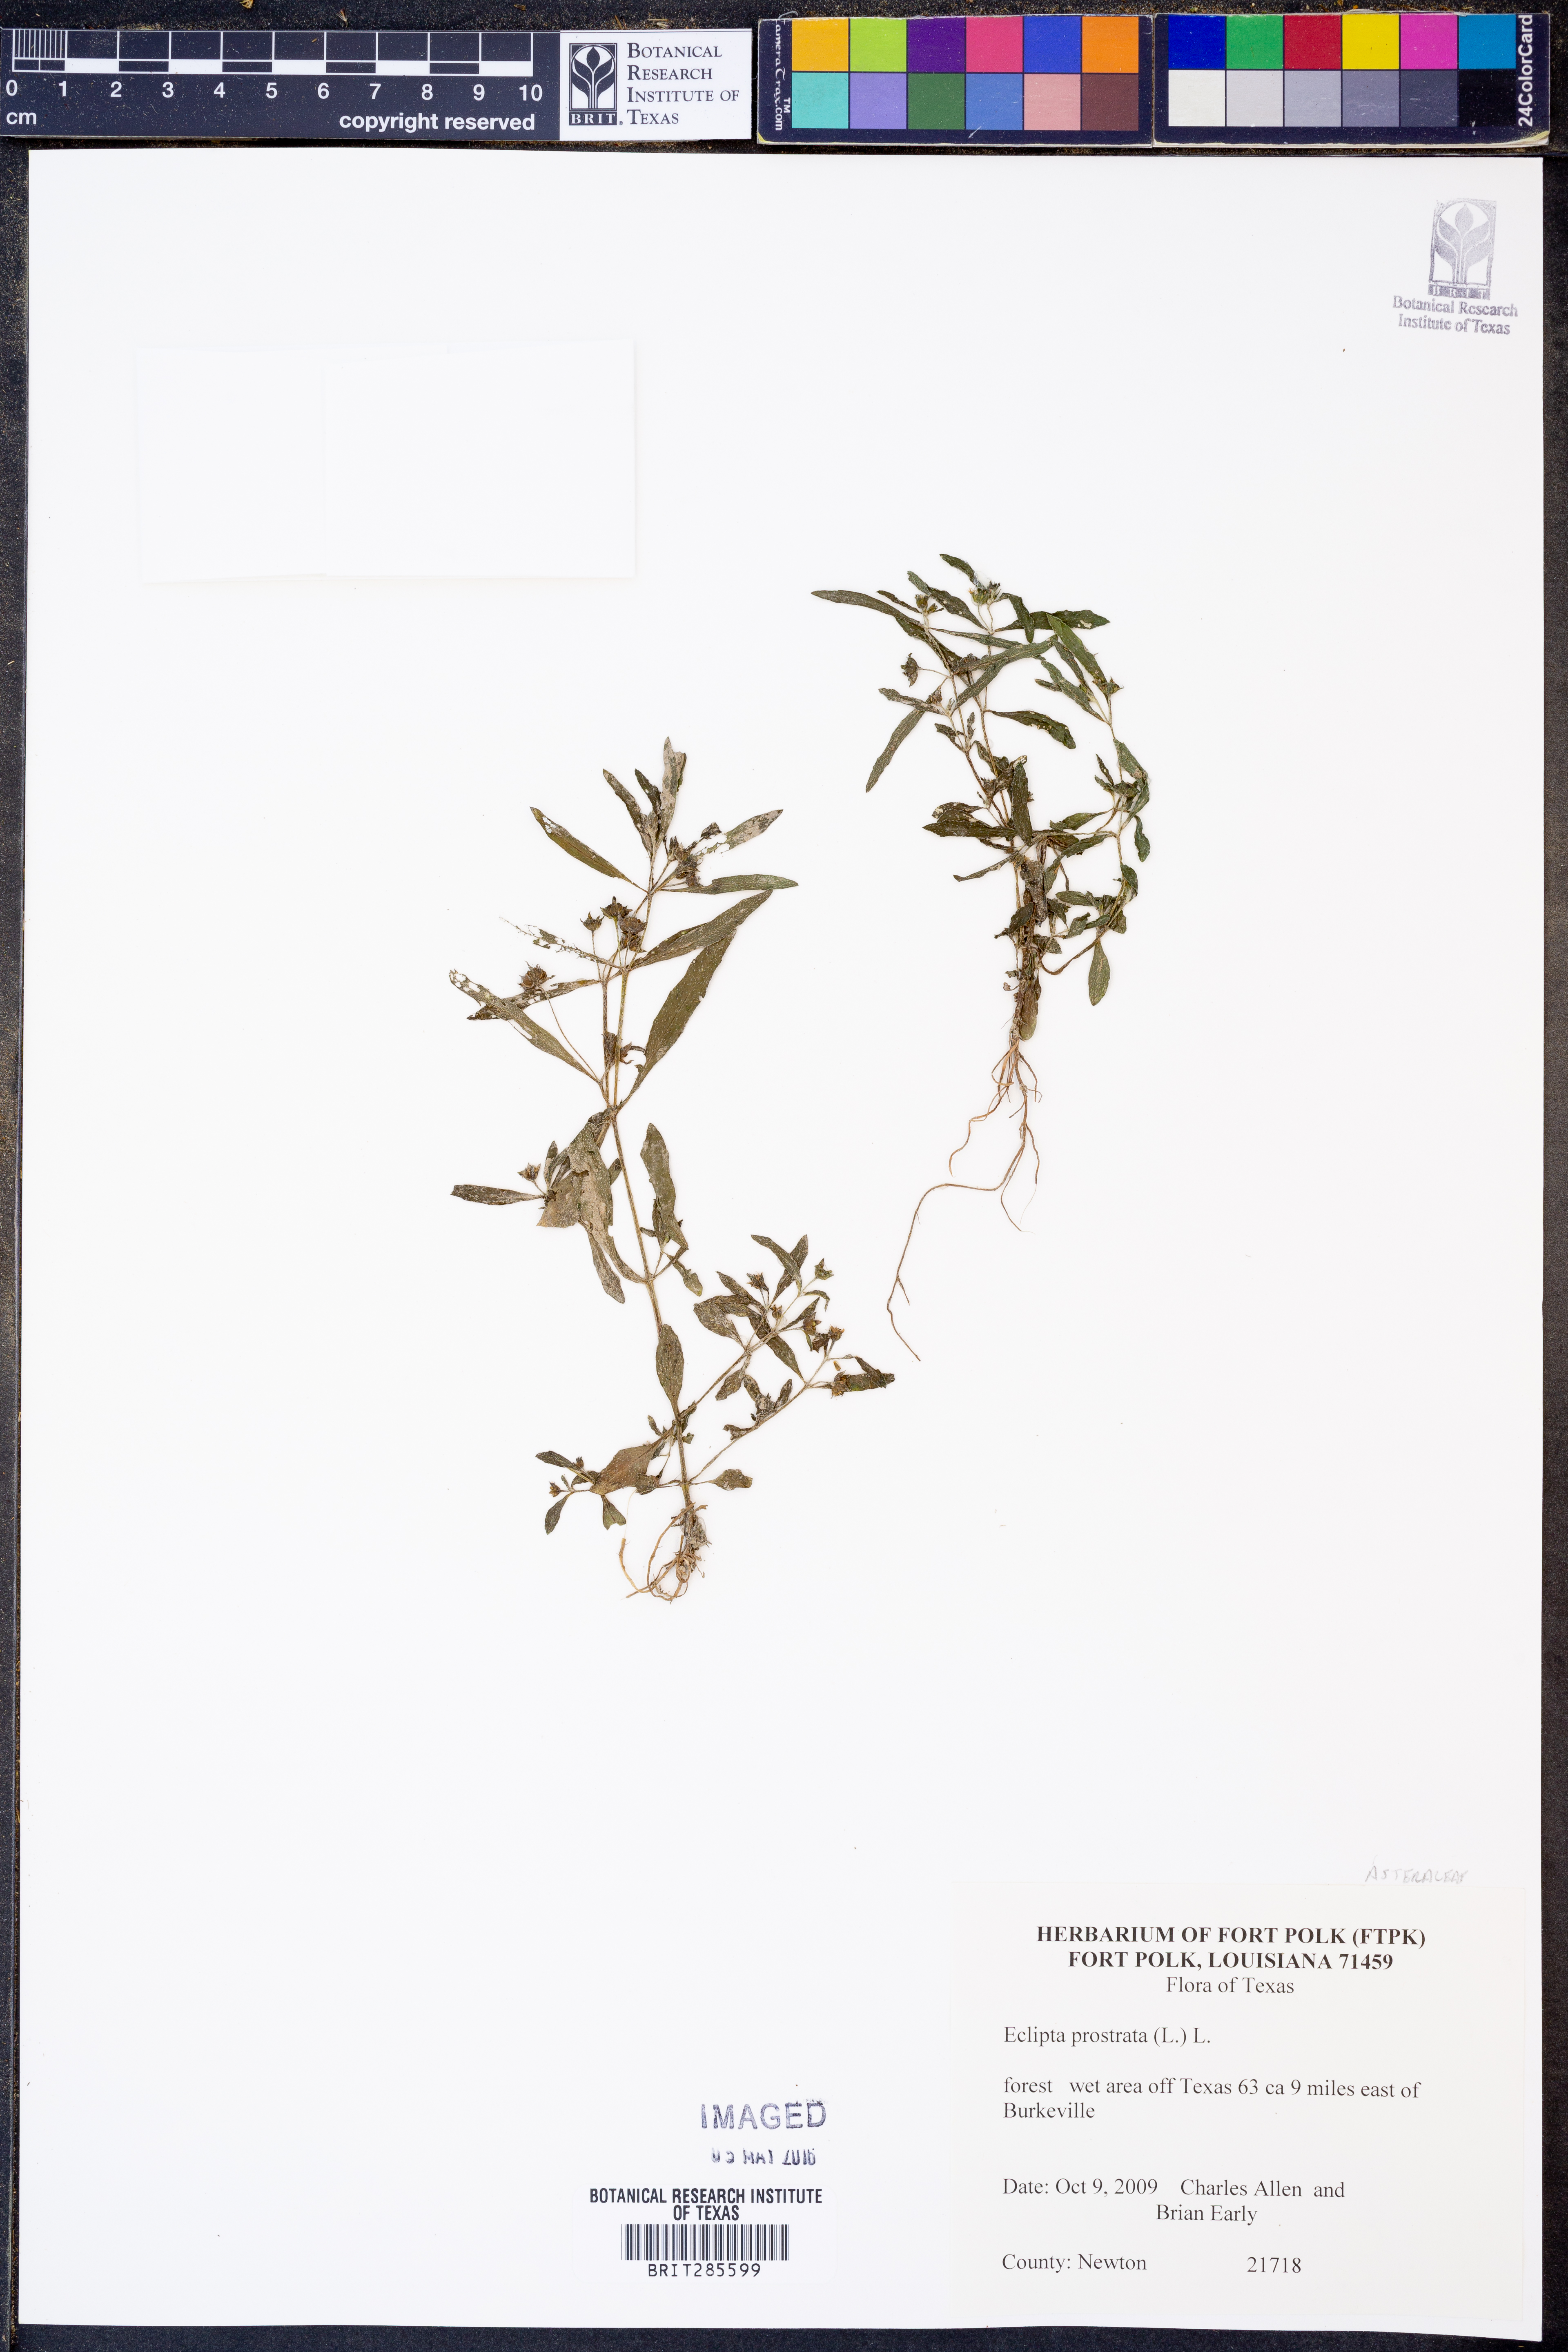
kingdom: Plantae
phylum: Tracheophyta
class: Magnoliopsida
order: Asterales
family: Asteraceae
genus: Eclipta
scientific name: Eclipta prostrata
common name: False daisy
